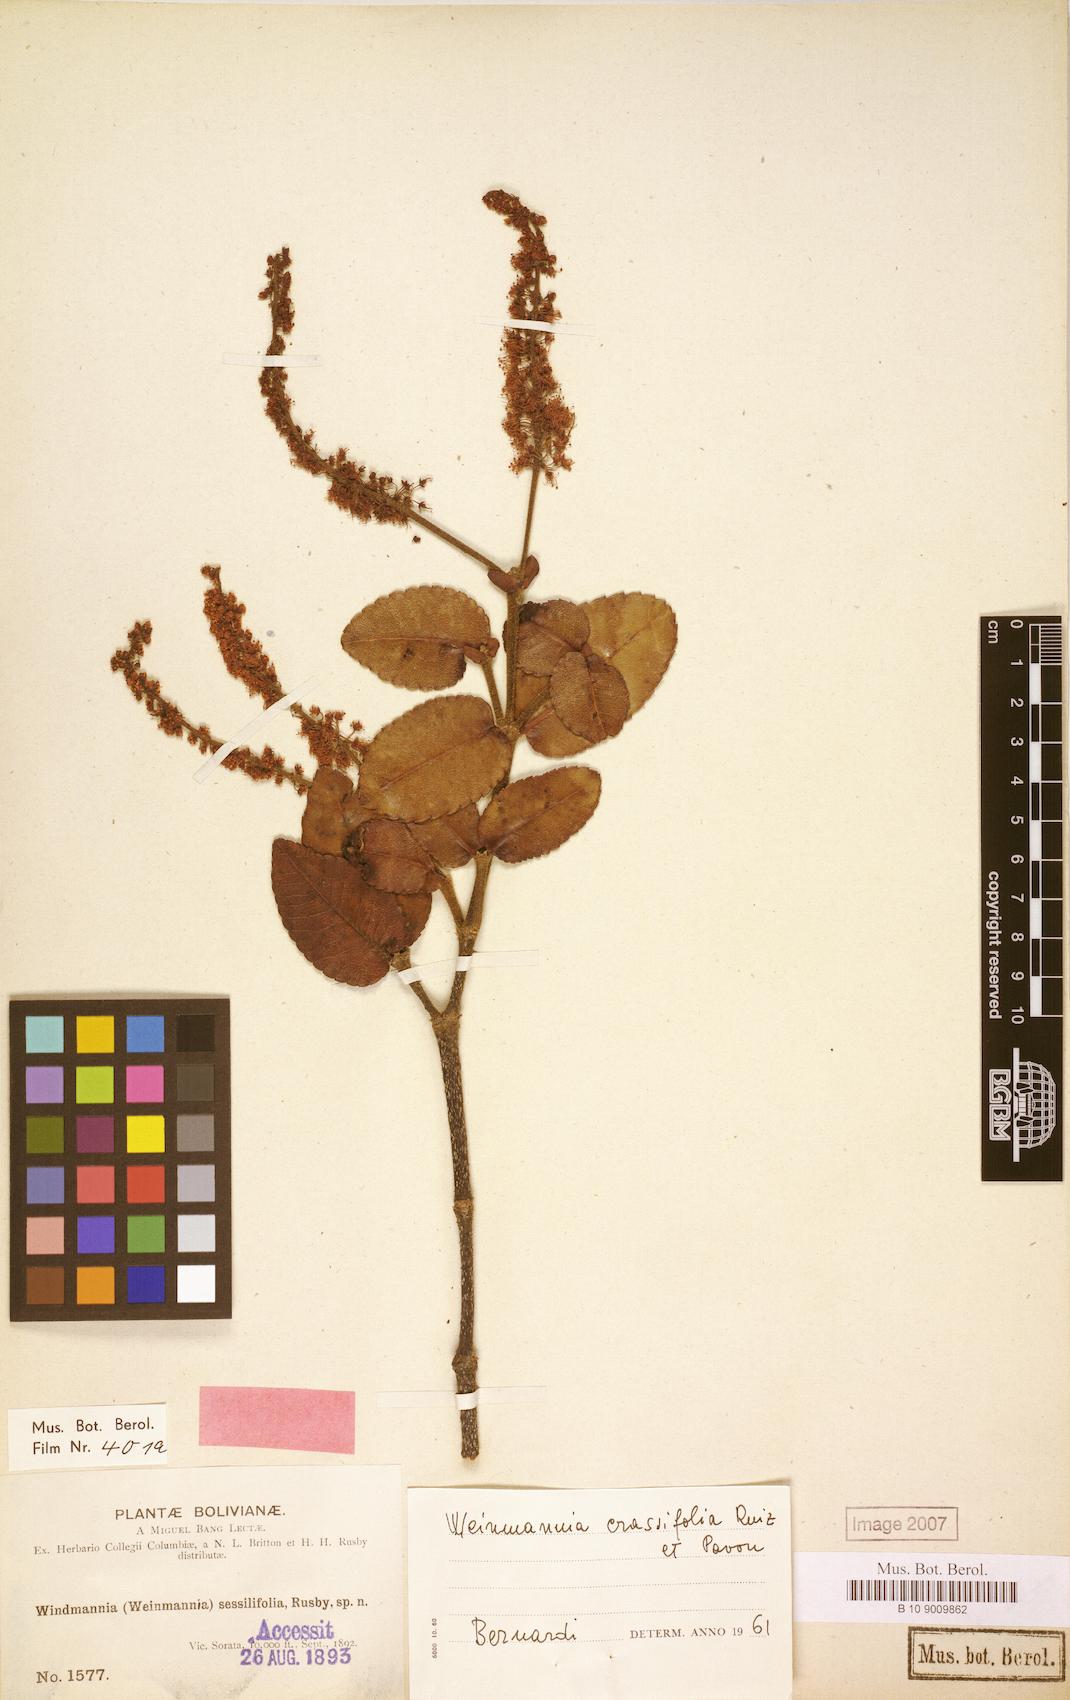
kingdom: Plantae
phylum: Tracheophyta
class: Magnoliopsida
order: Oxalidales
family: Cunoniaceae
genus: Weinmannia
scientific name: Weinmannia crassifolia
